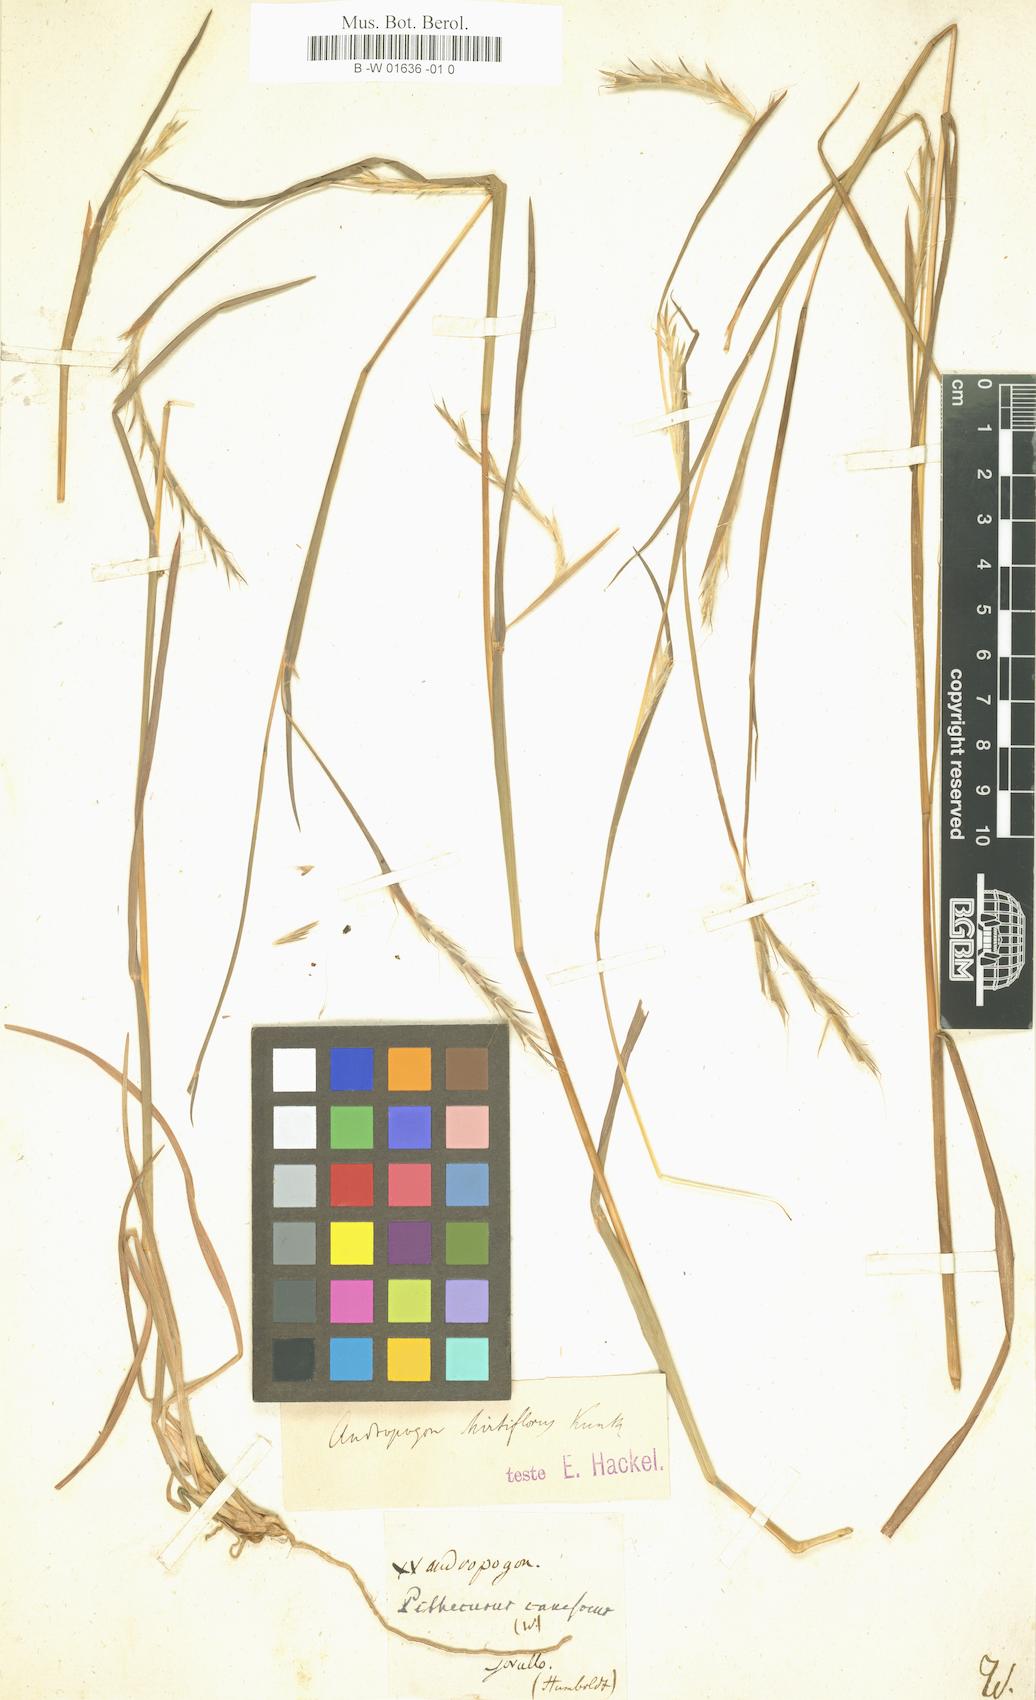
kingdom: Plantae
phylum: Tracheophyta
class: Liliopsida
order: Poales
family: Poaceae
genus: Trachypogon
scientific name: Trachypogon spicatus
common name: Crinkle-awn
